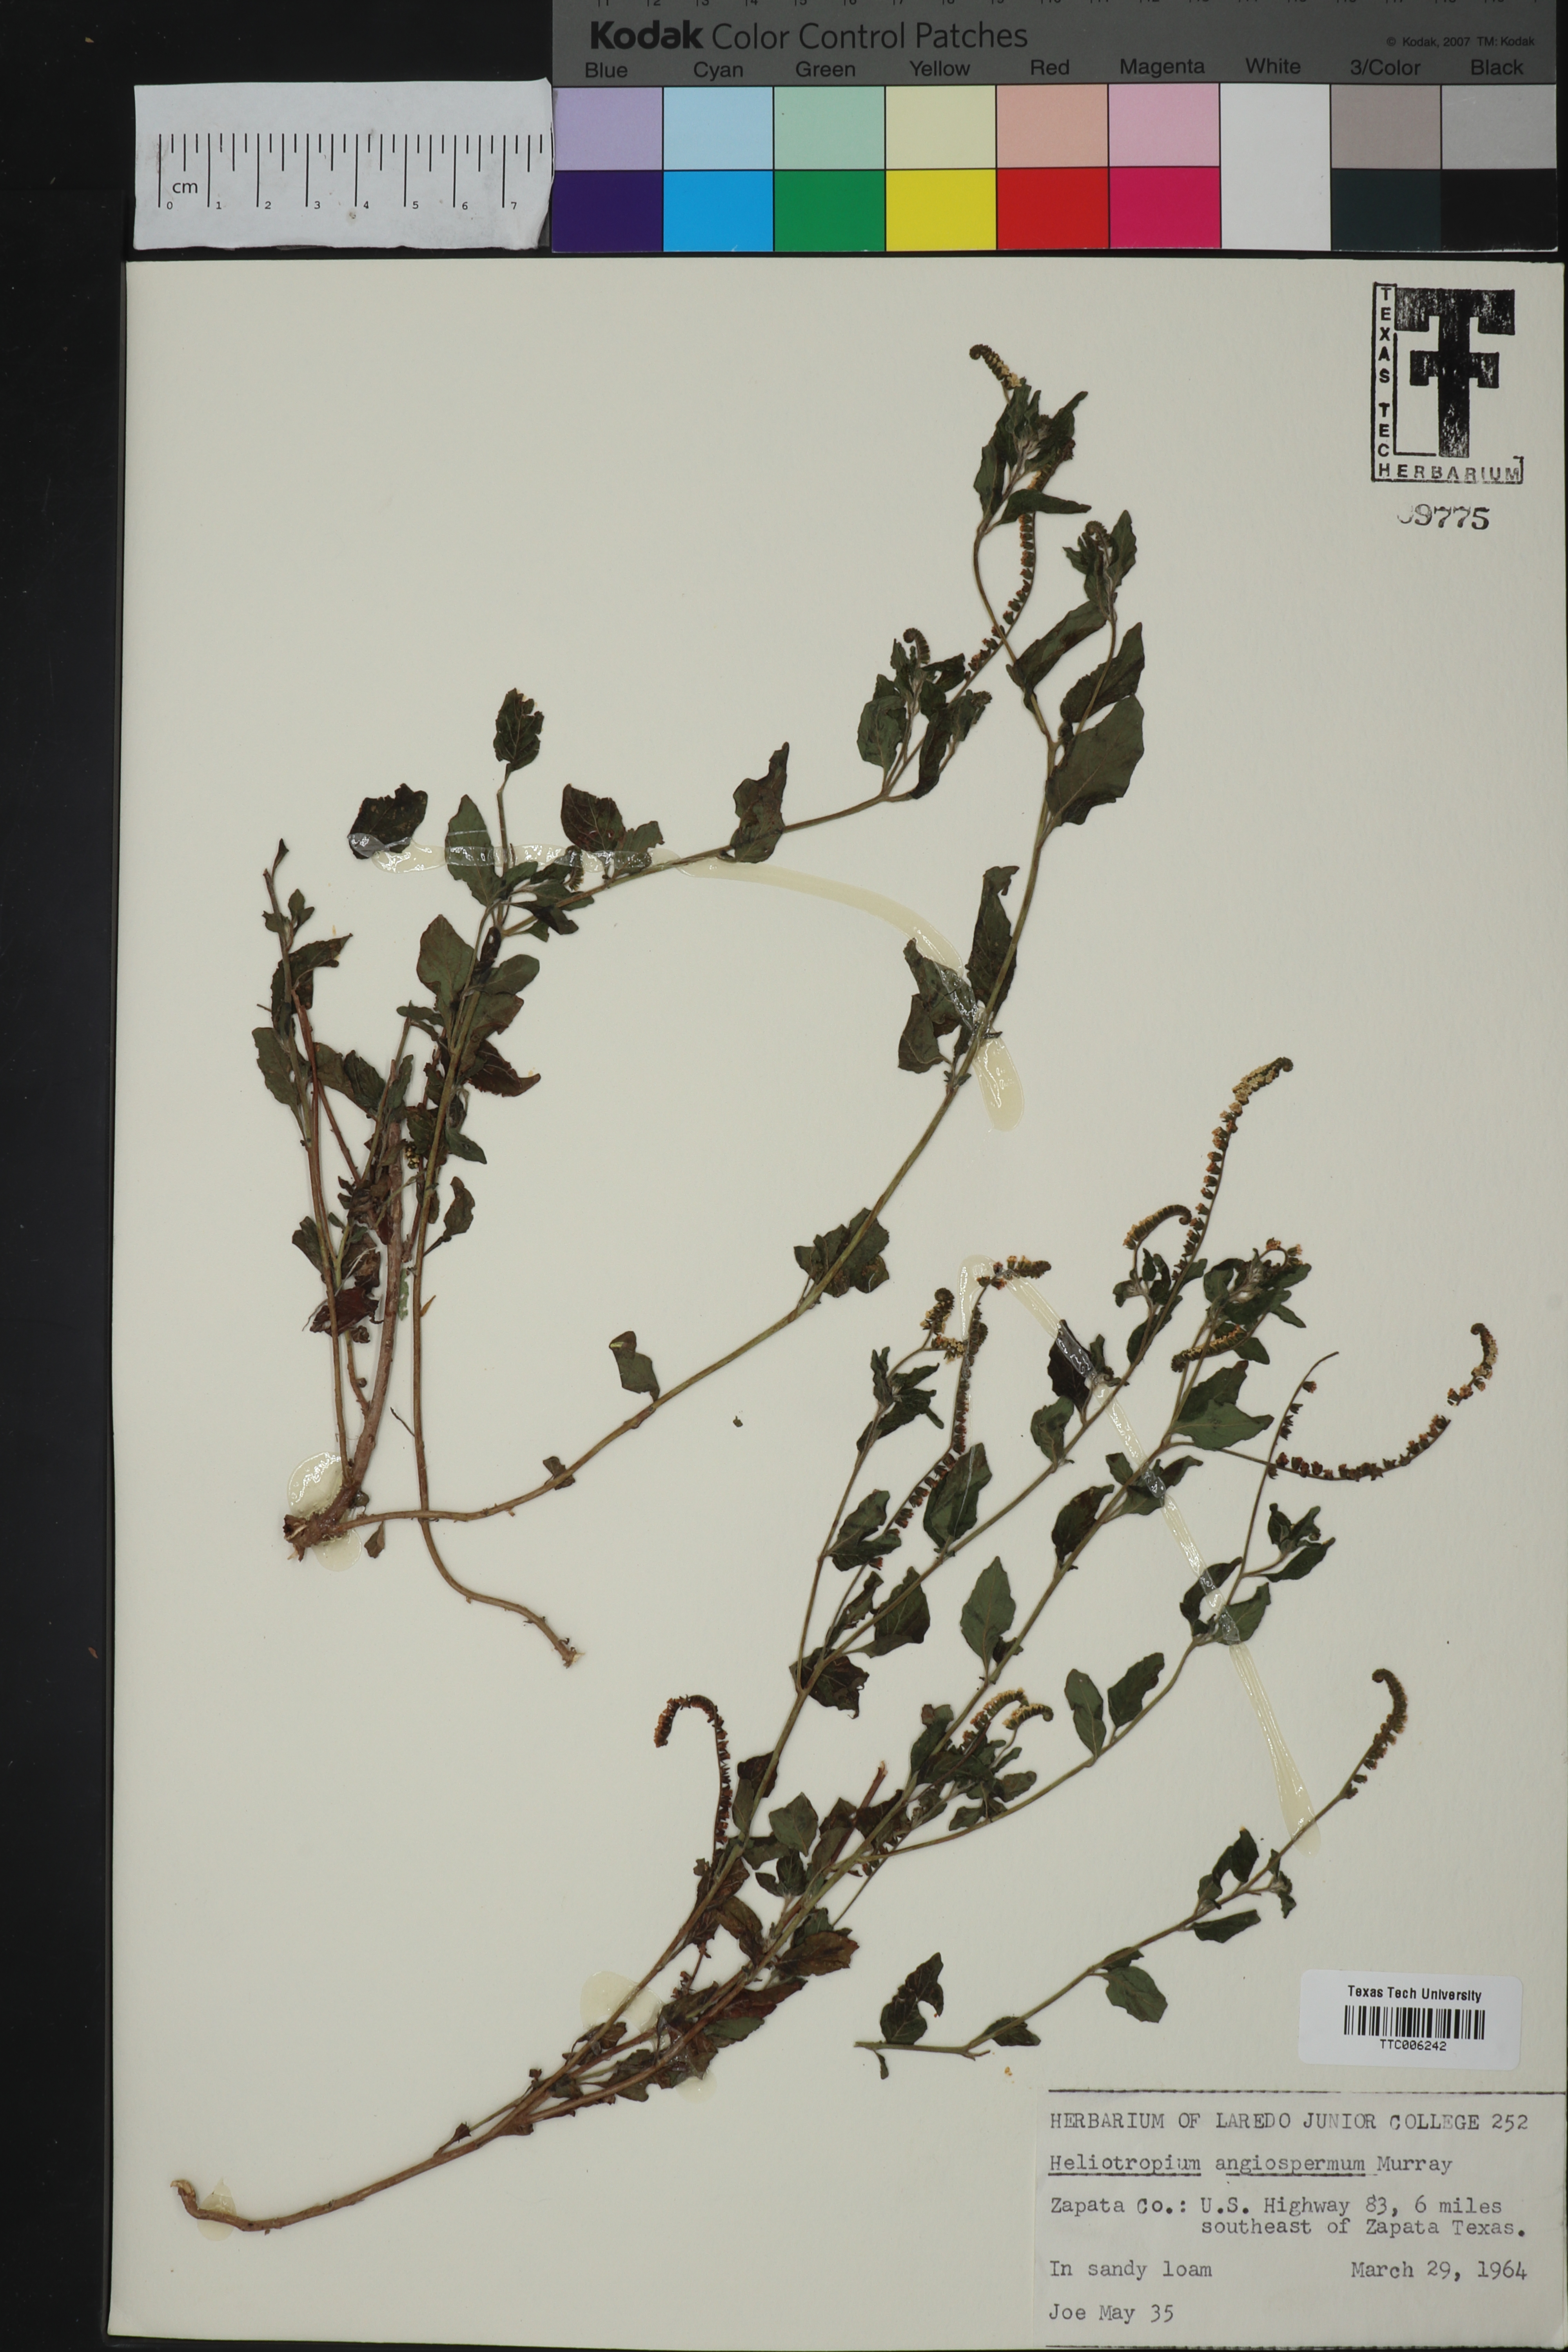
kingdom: Plantae
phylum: Tracheophyta
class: Magnoliopsida
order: Boraginales
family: Heliotropiaceae
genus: Heliotropium
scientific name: Heliotropium angiospermum
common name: Eye bright
